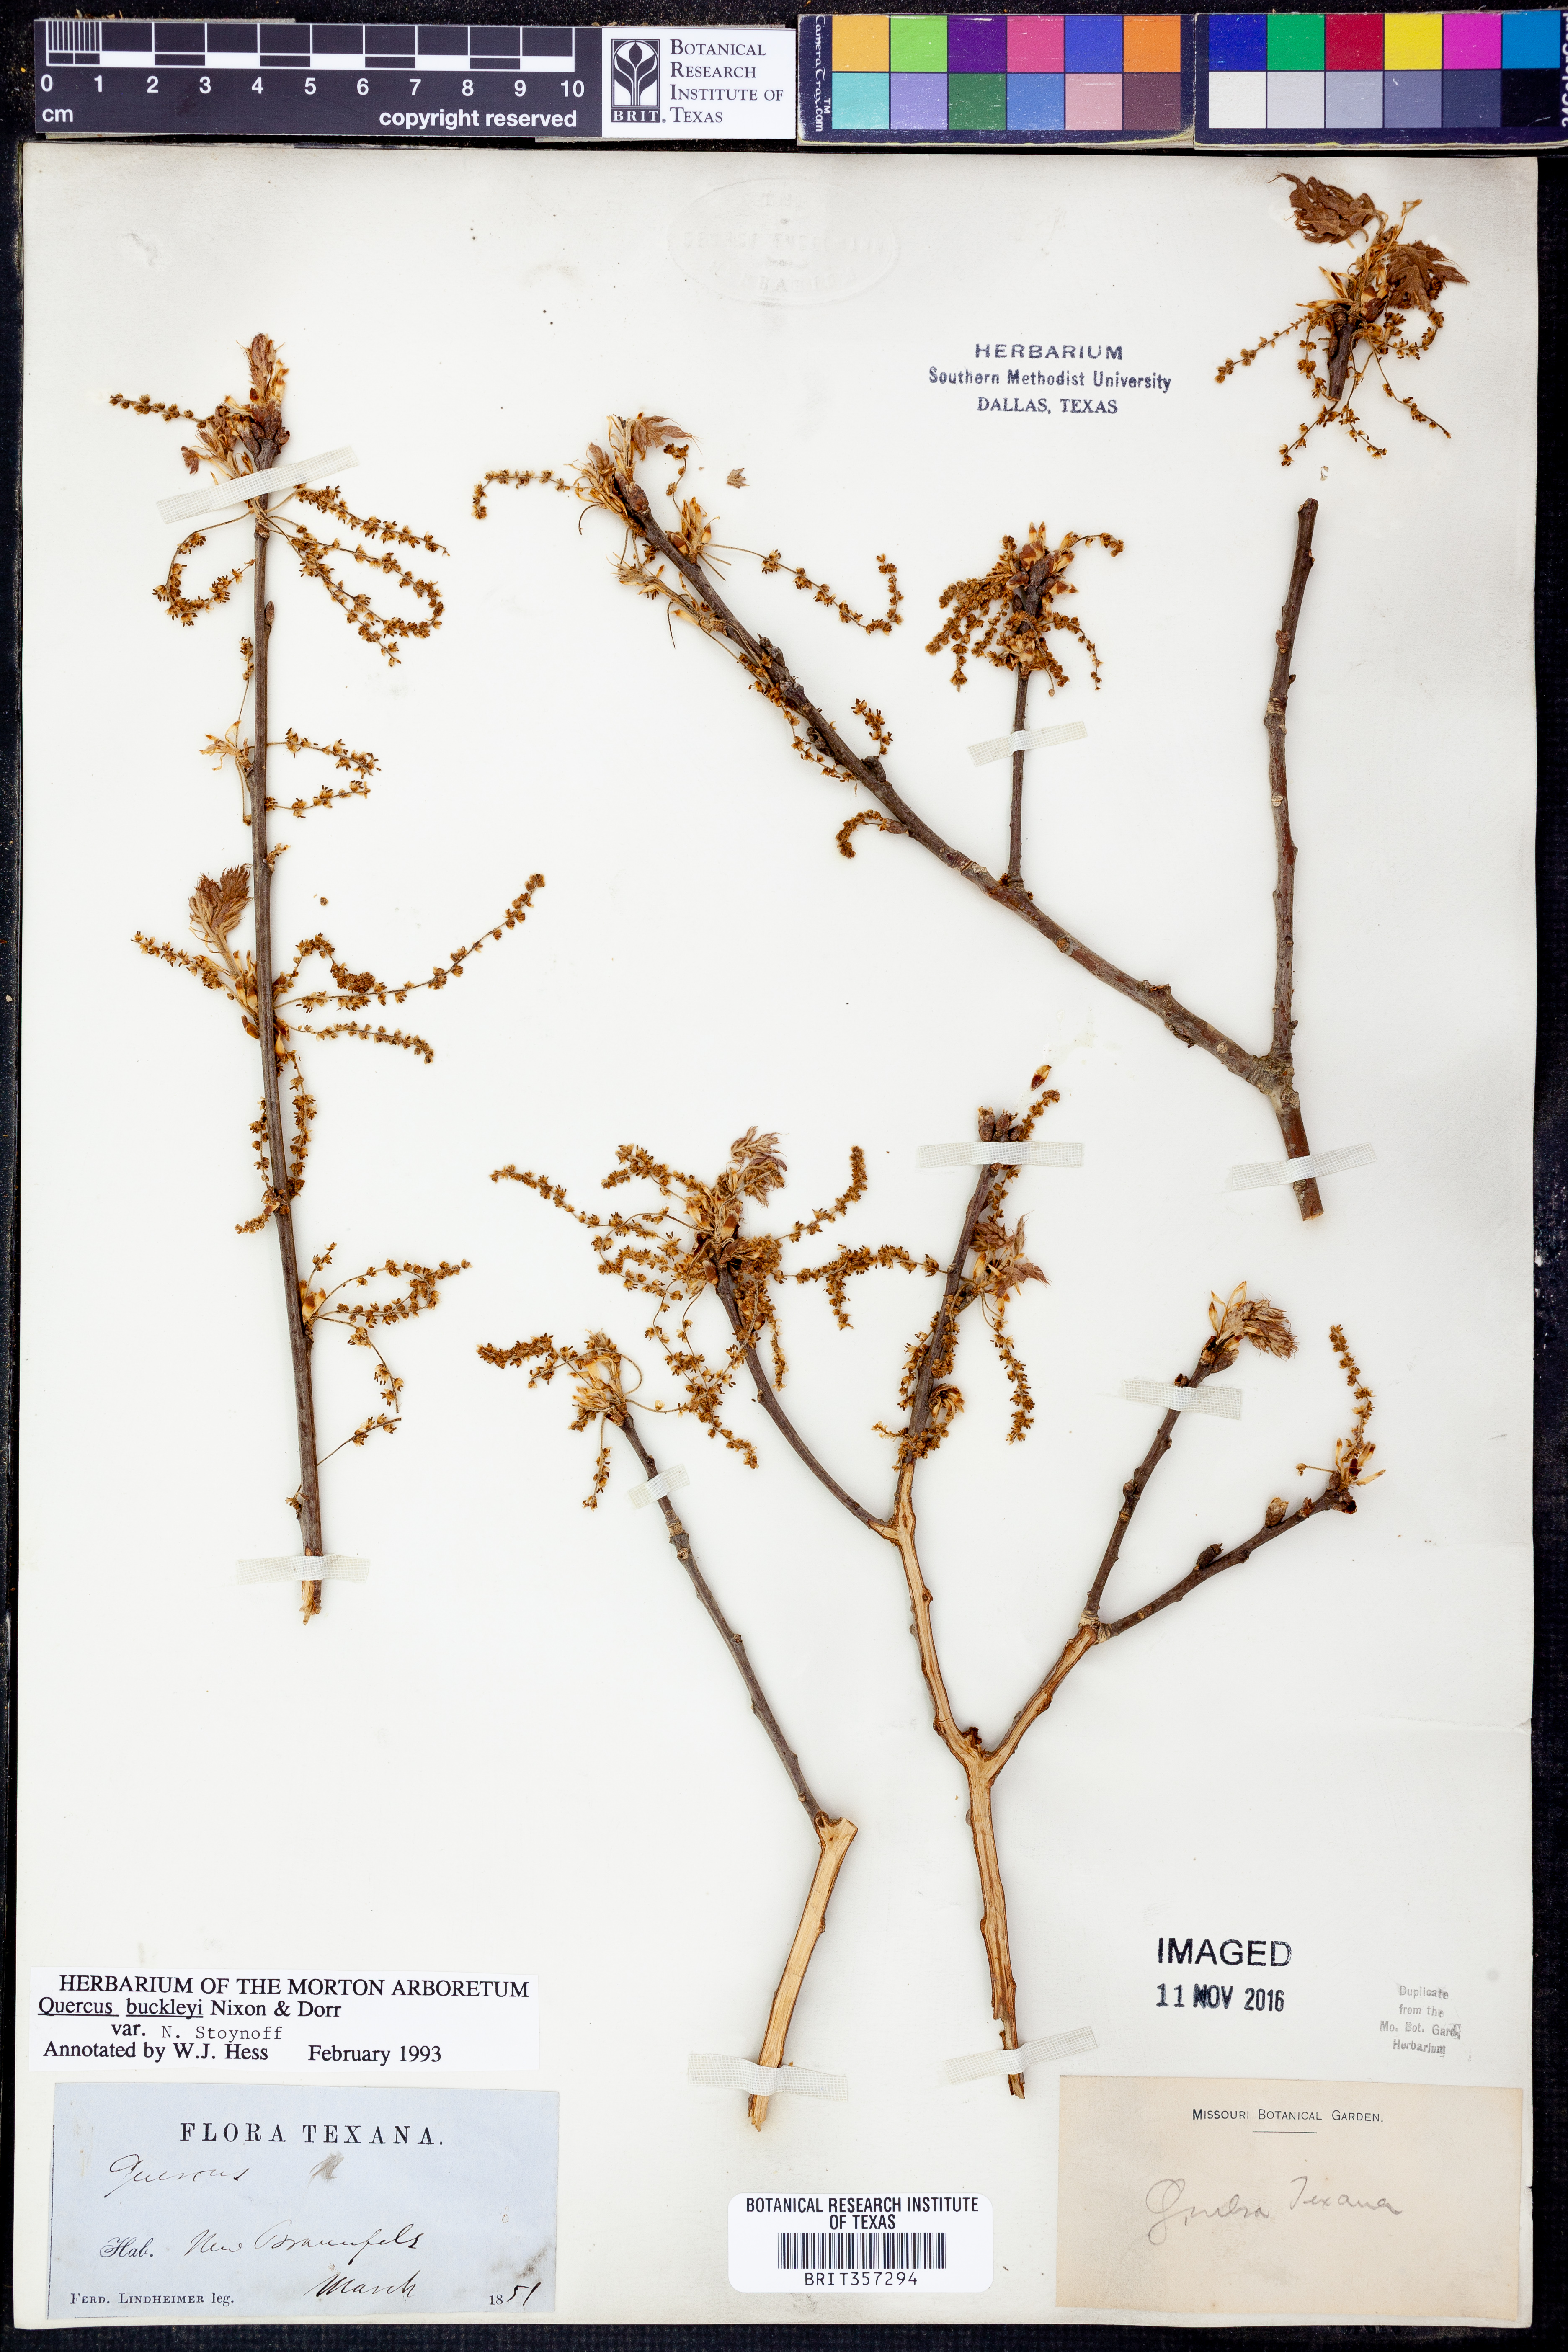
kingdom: Plantae
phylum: Tracheophyta
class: Magnoliopsida
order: Fagales
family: Fagaceae
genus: Quercus
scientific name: Quercus buckleyi
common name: Buckley oak
